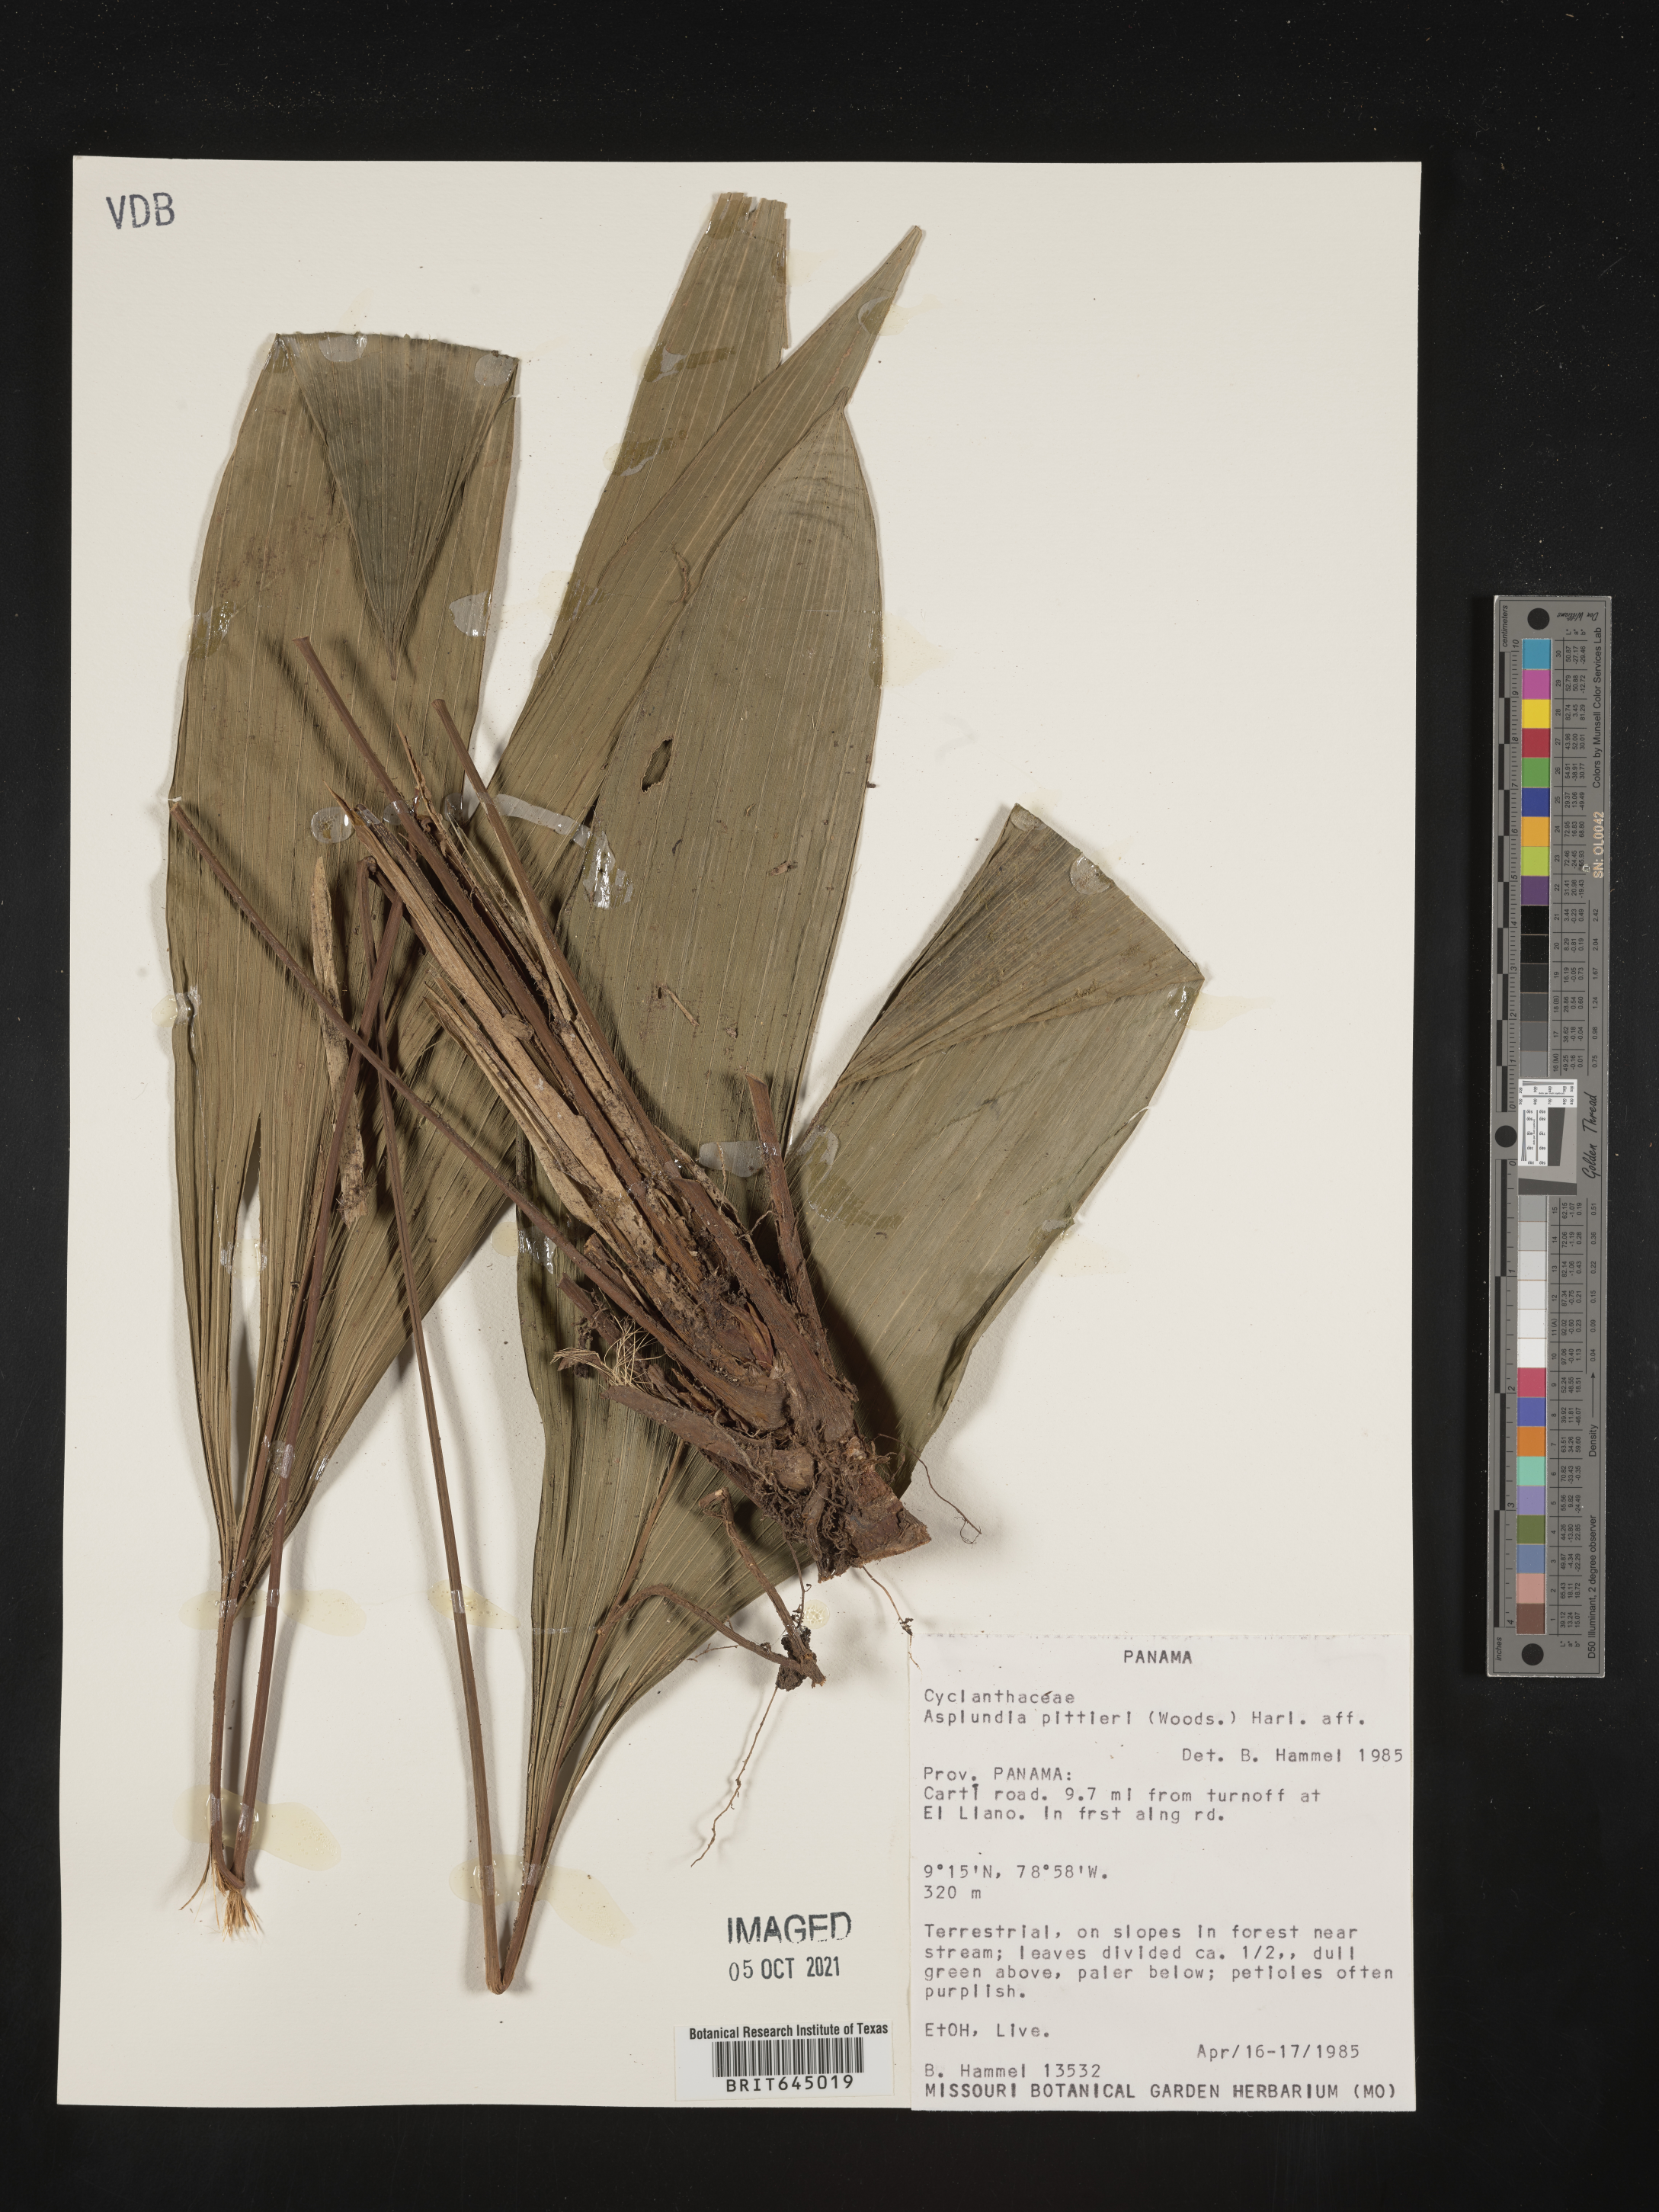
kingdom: Plantae
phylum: Tracheophyta
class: Liliopsida
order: Pandanales
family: Cyclanthaceae
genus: Asplundia
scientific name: Asplundia pittieri
